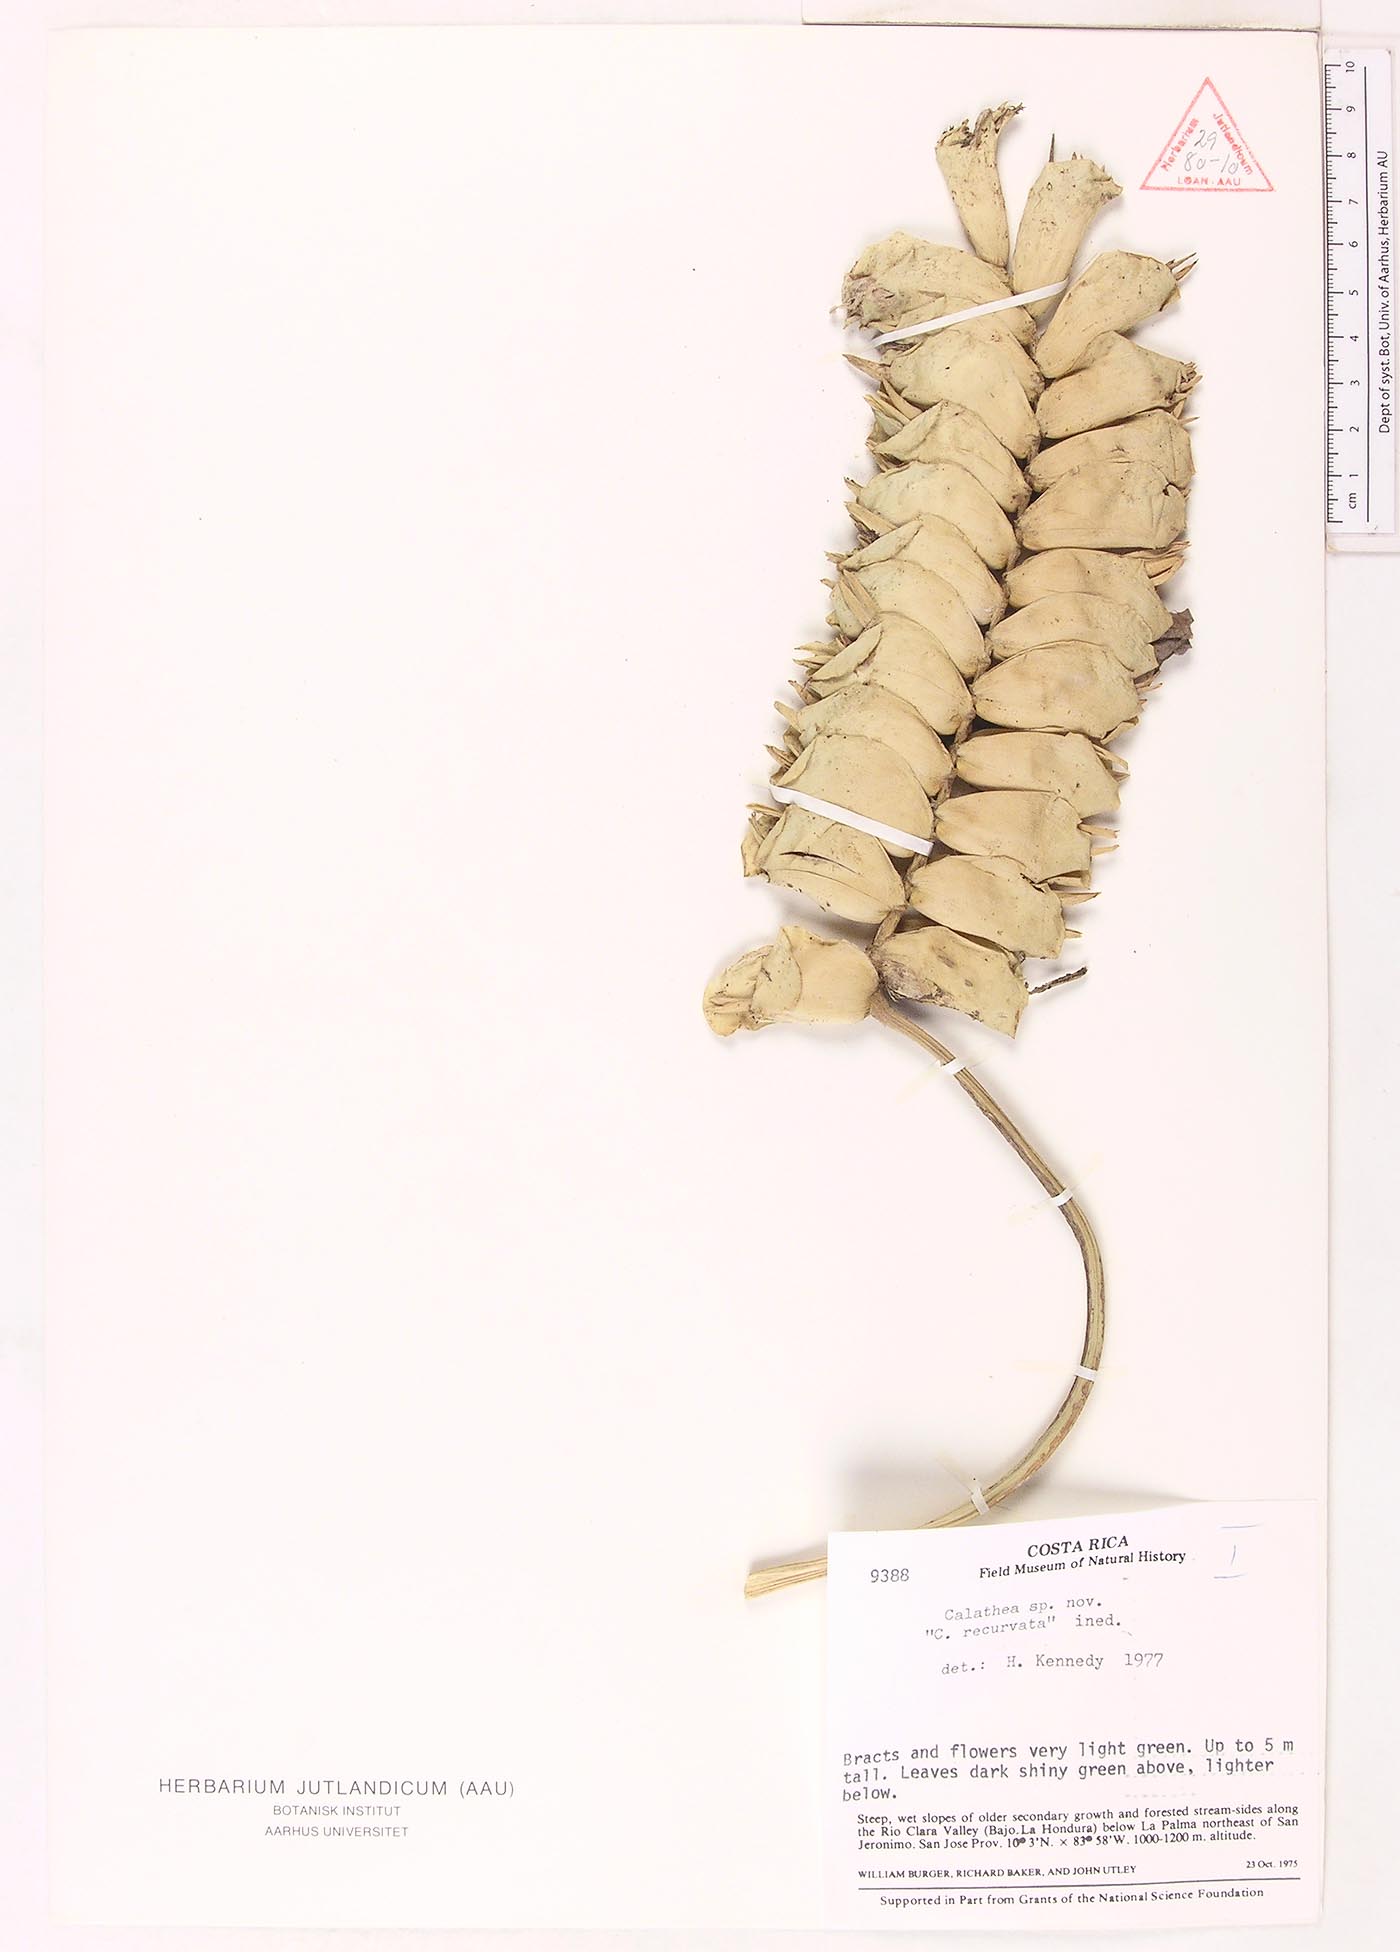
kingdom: Plantae
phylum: Tracheophyta
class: Liliopsida
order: Zingiberales
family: Marantaceae
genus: Calathea
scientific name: Calathea
